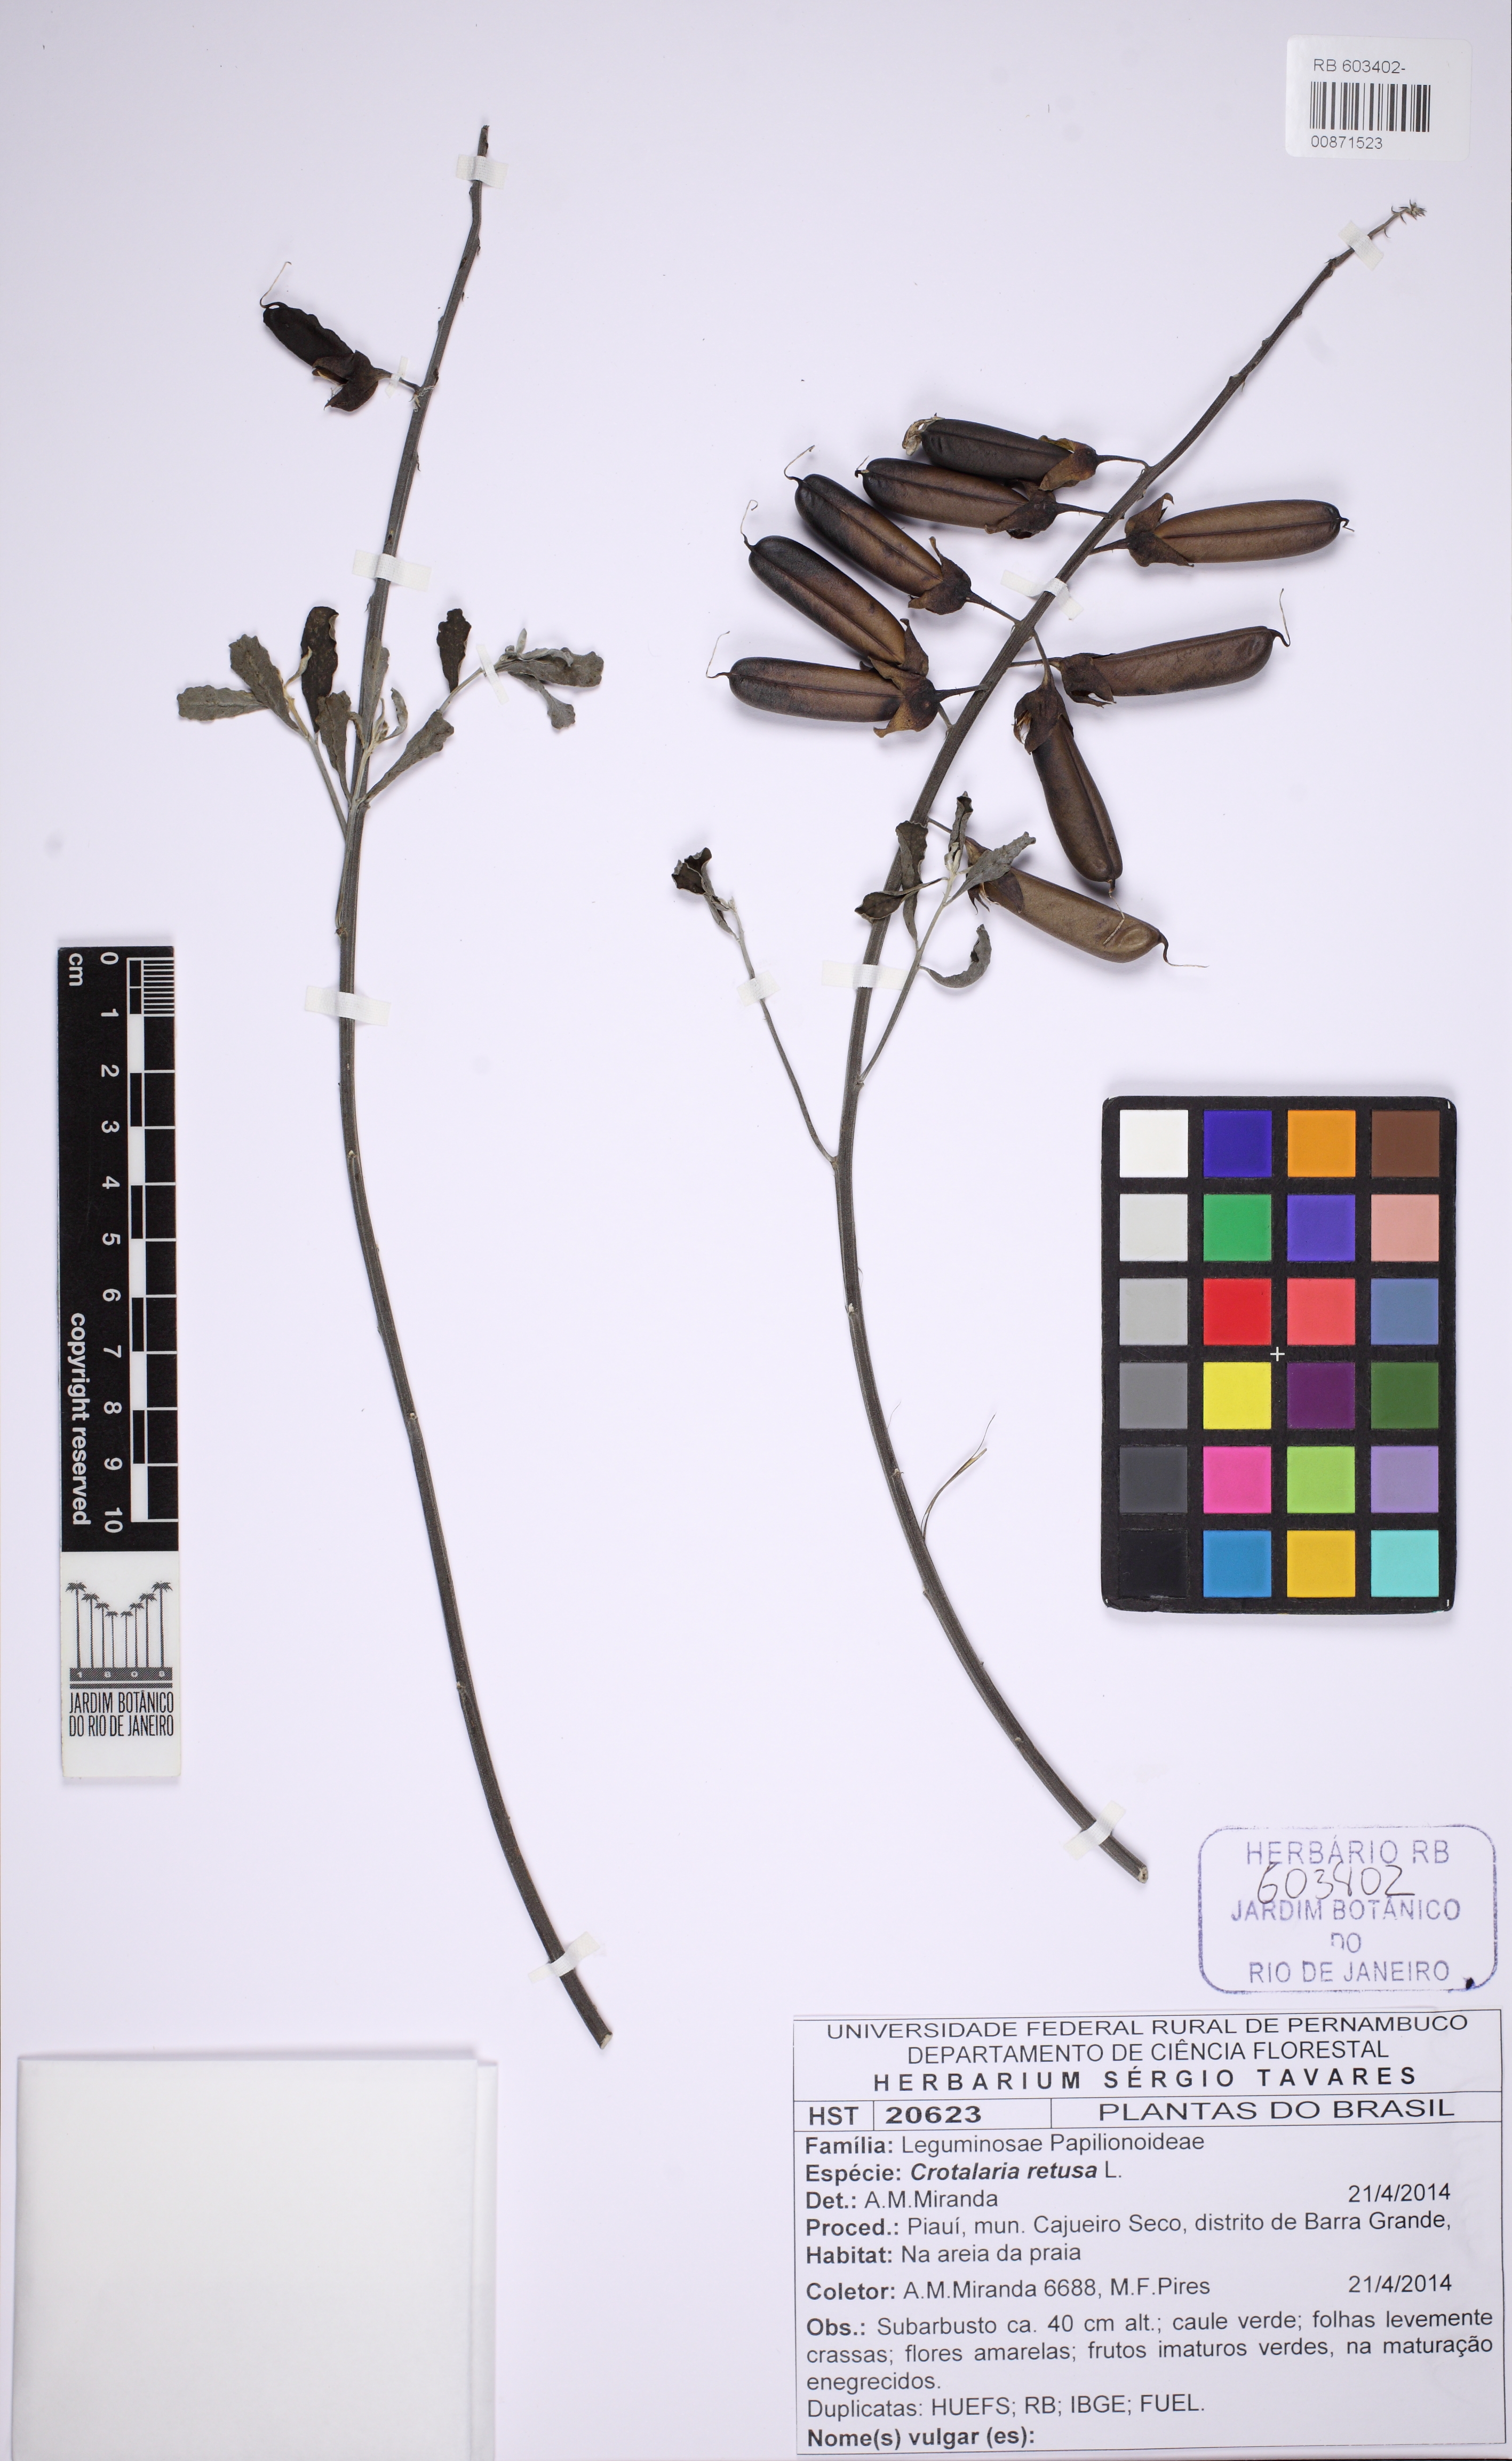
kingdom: Plantae
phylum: Tracheophyta
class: Magnoliopsida
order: Fabales
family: Fabaceae
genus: Crotalaria
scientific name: Crotalaria retusa
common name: Rattleweed
